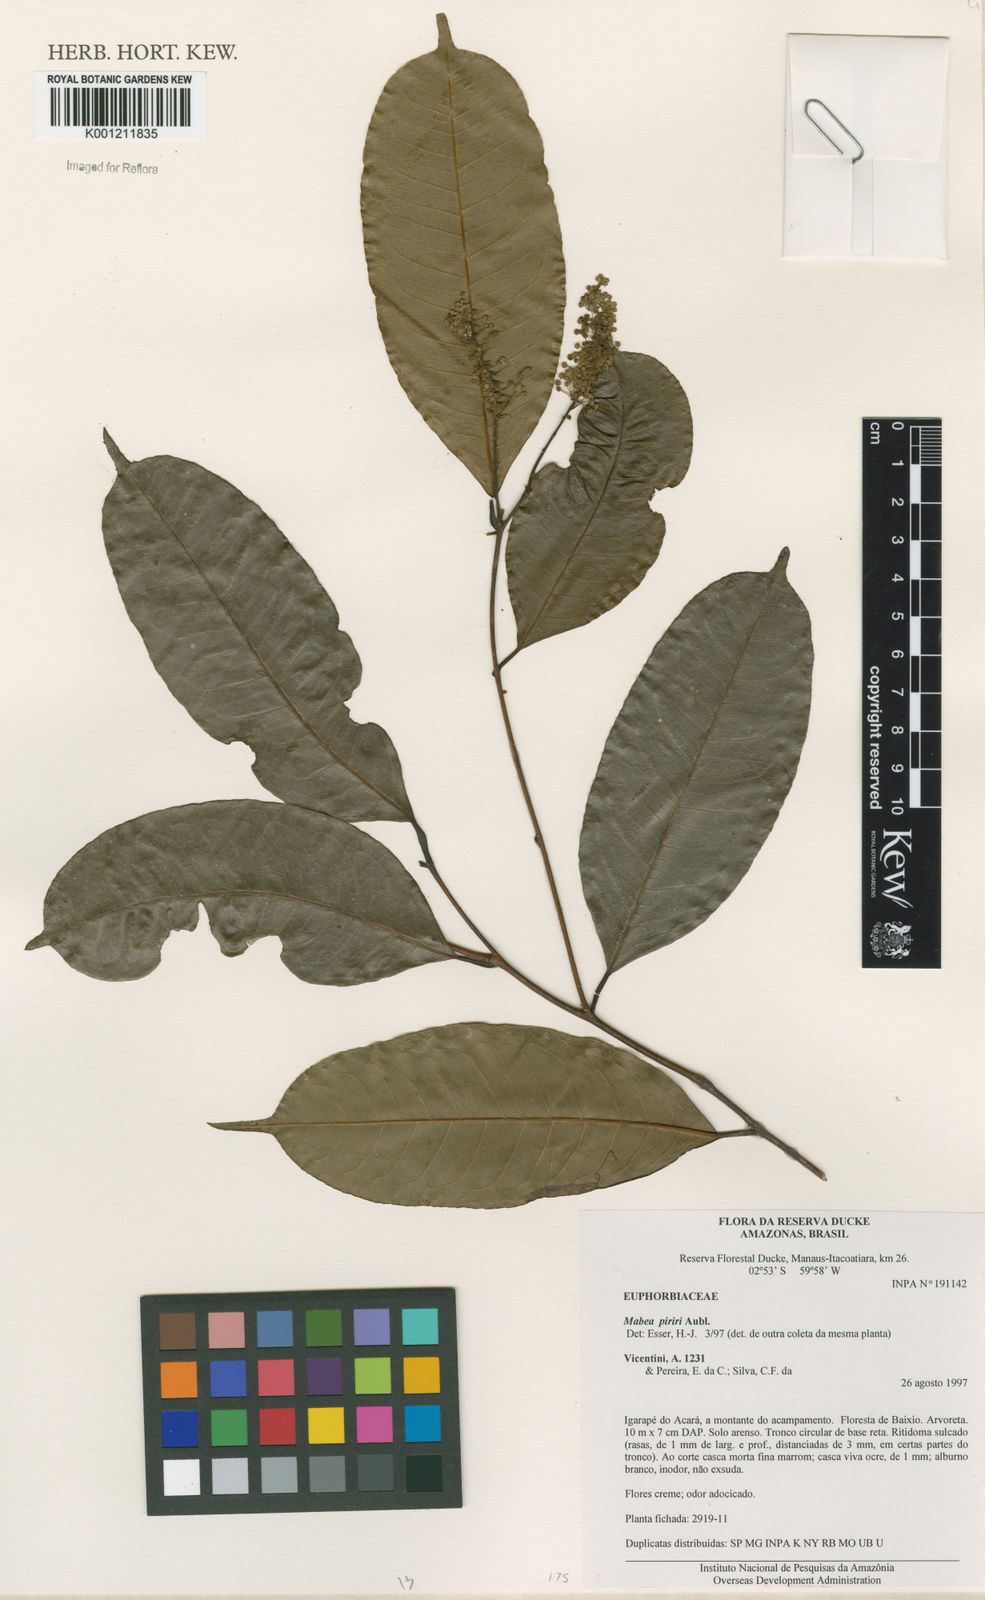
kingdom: Plantae
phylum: Tracheophyta
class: Magnoliopsida
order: Malpighiales
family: Euphorbiaceae
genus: Mabea
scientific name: Mabea piriri
